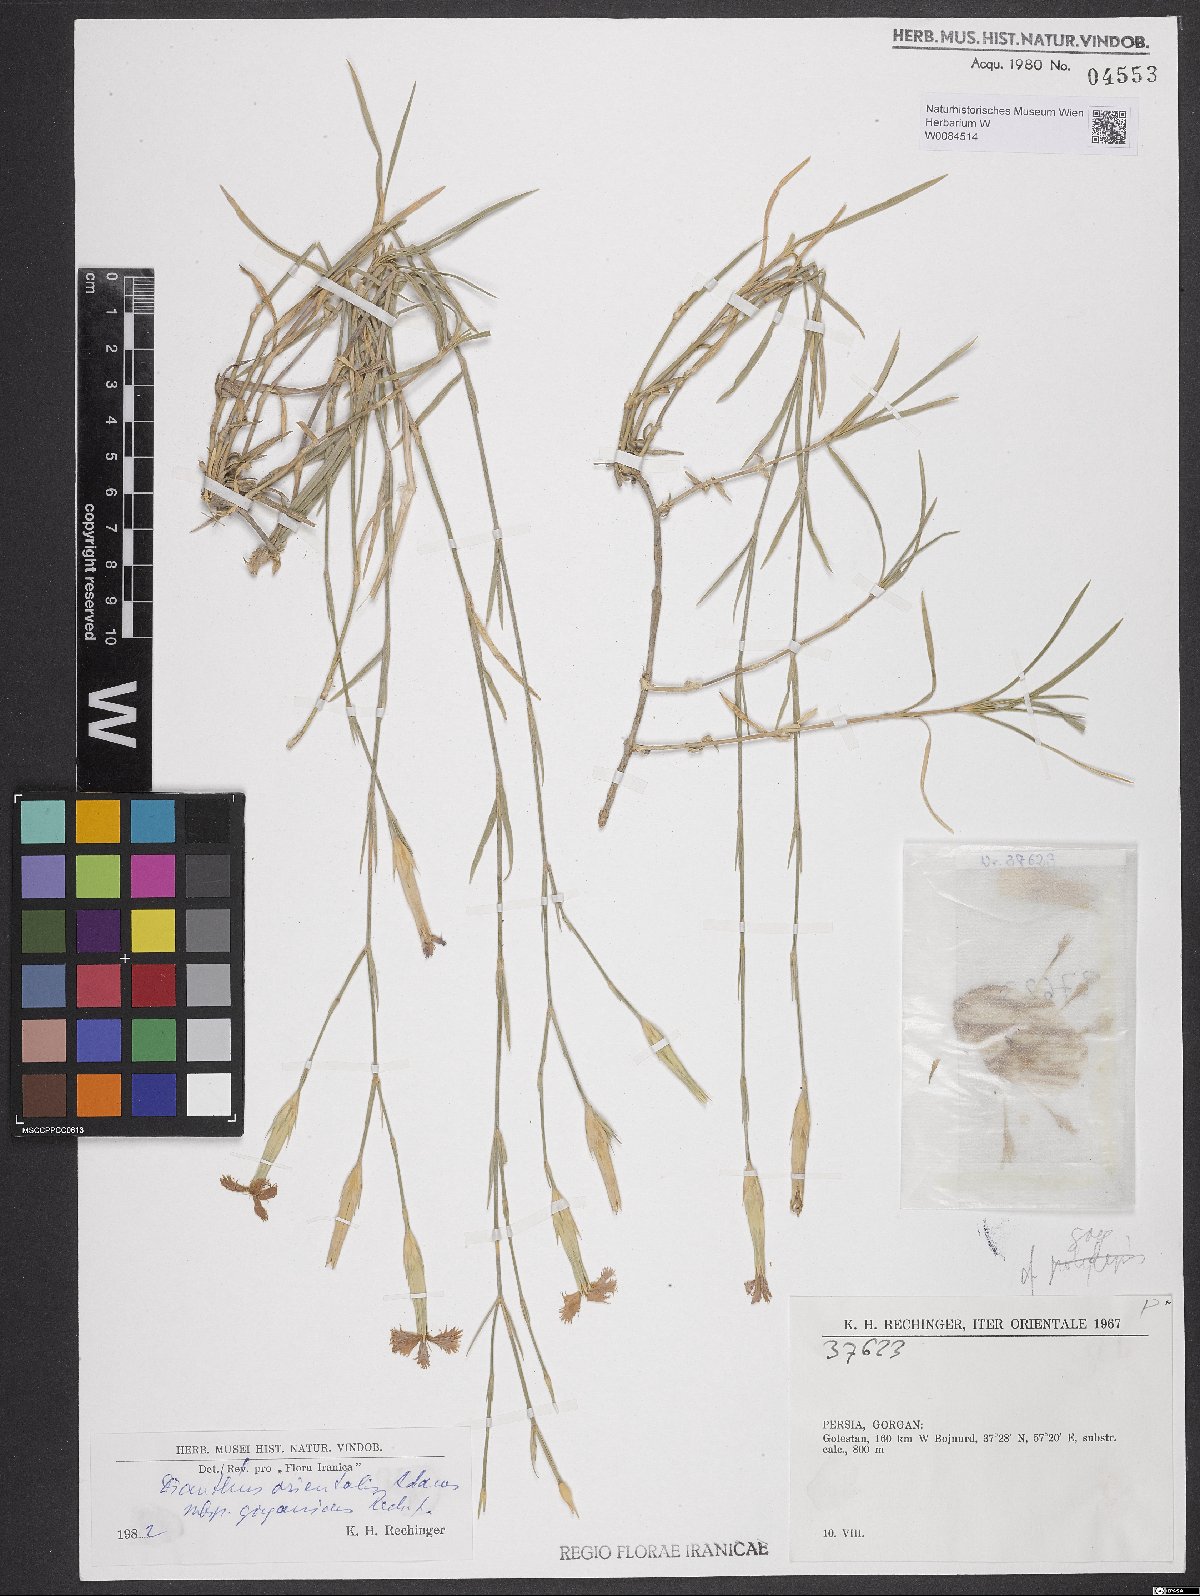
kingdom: Plantae
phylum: Tracheophyta
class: Magnoliopsida
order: Caryophyllales
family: Caryophyllaceae
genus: Dianthus
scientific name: Dianthus orientalis
